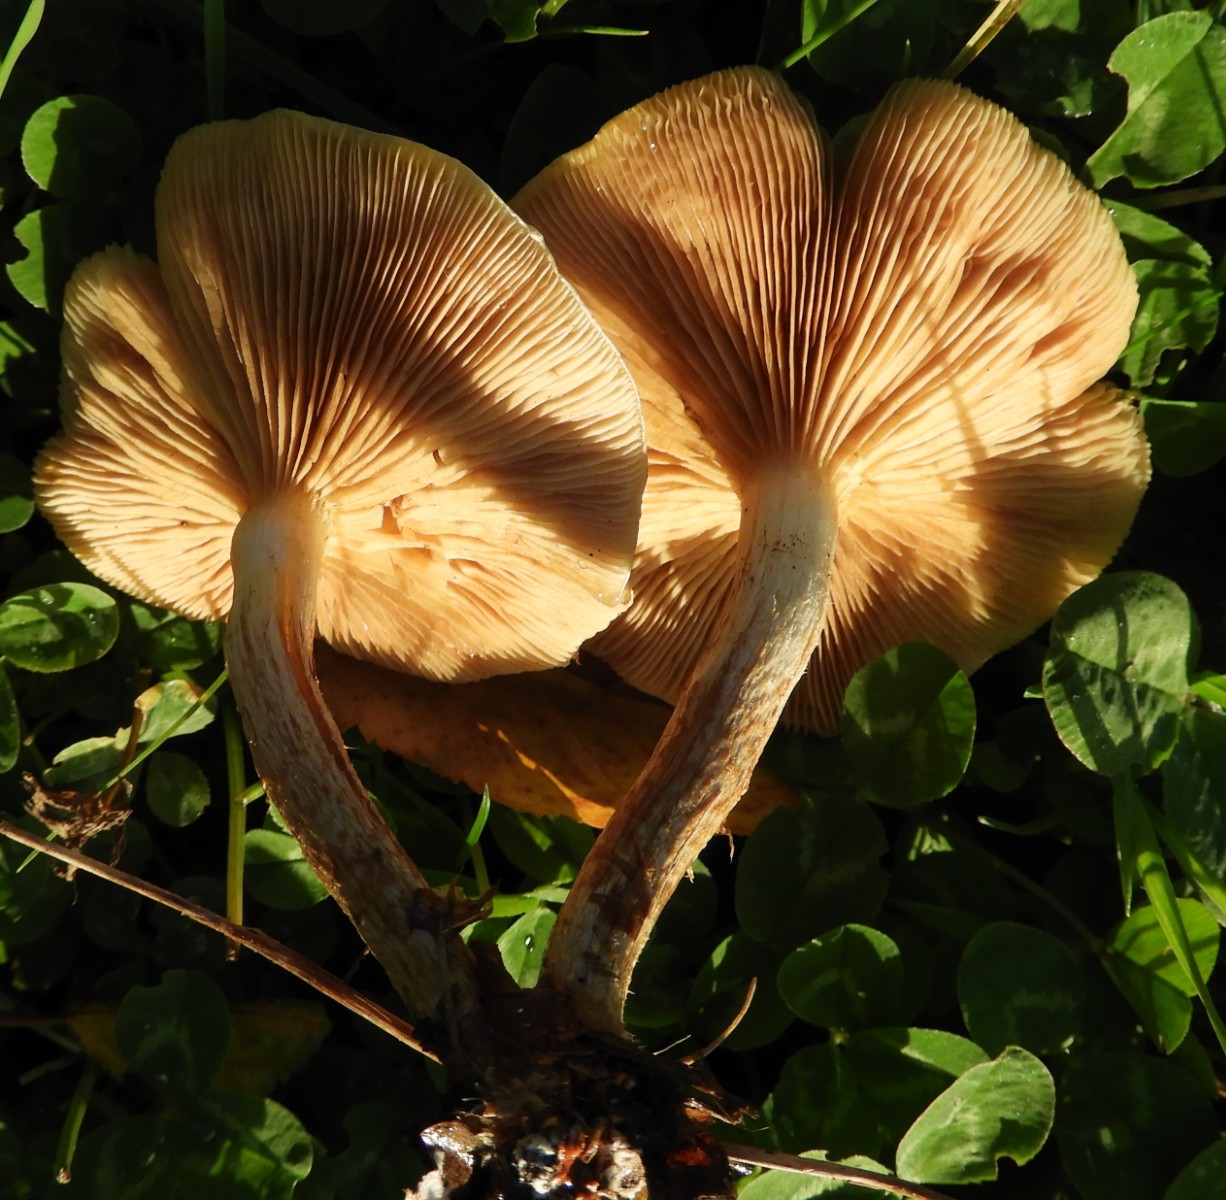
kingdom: Fungi
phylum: Basidiomycota
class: Agaricomycetes
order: Agaricales
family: Strophariaceae
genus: Pholiota
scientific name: Pholiota gummosa
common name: grøngul skælhat
